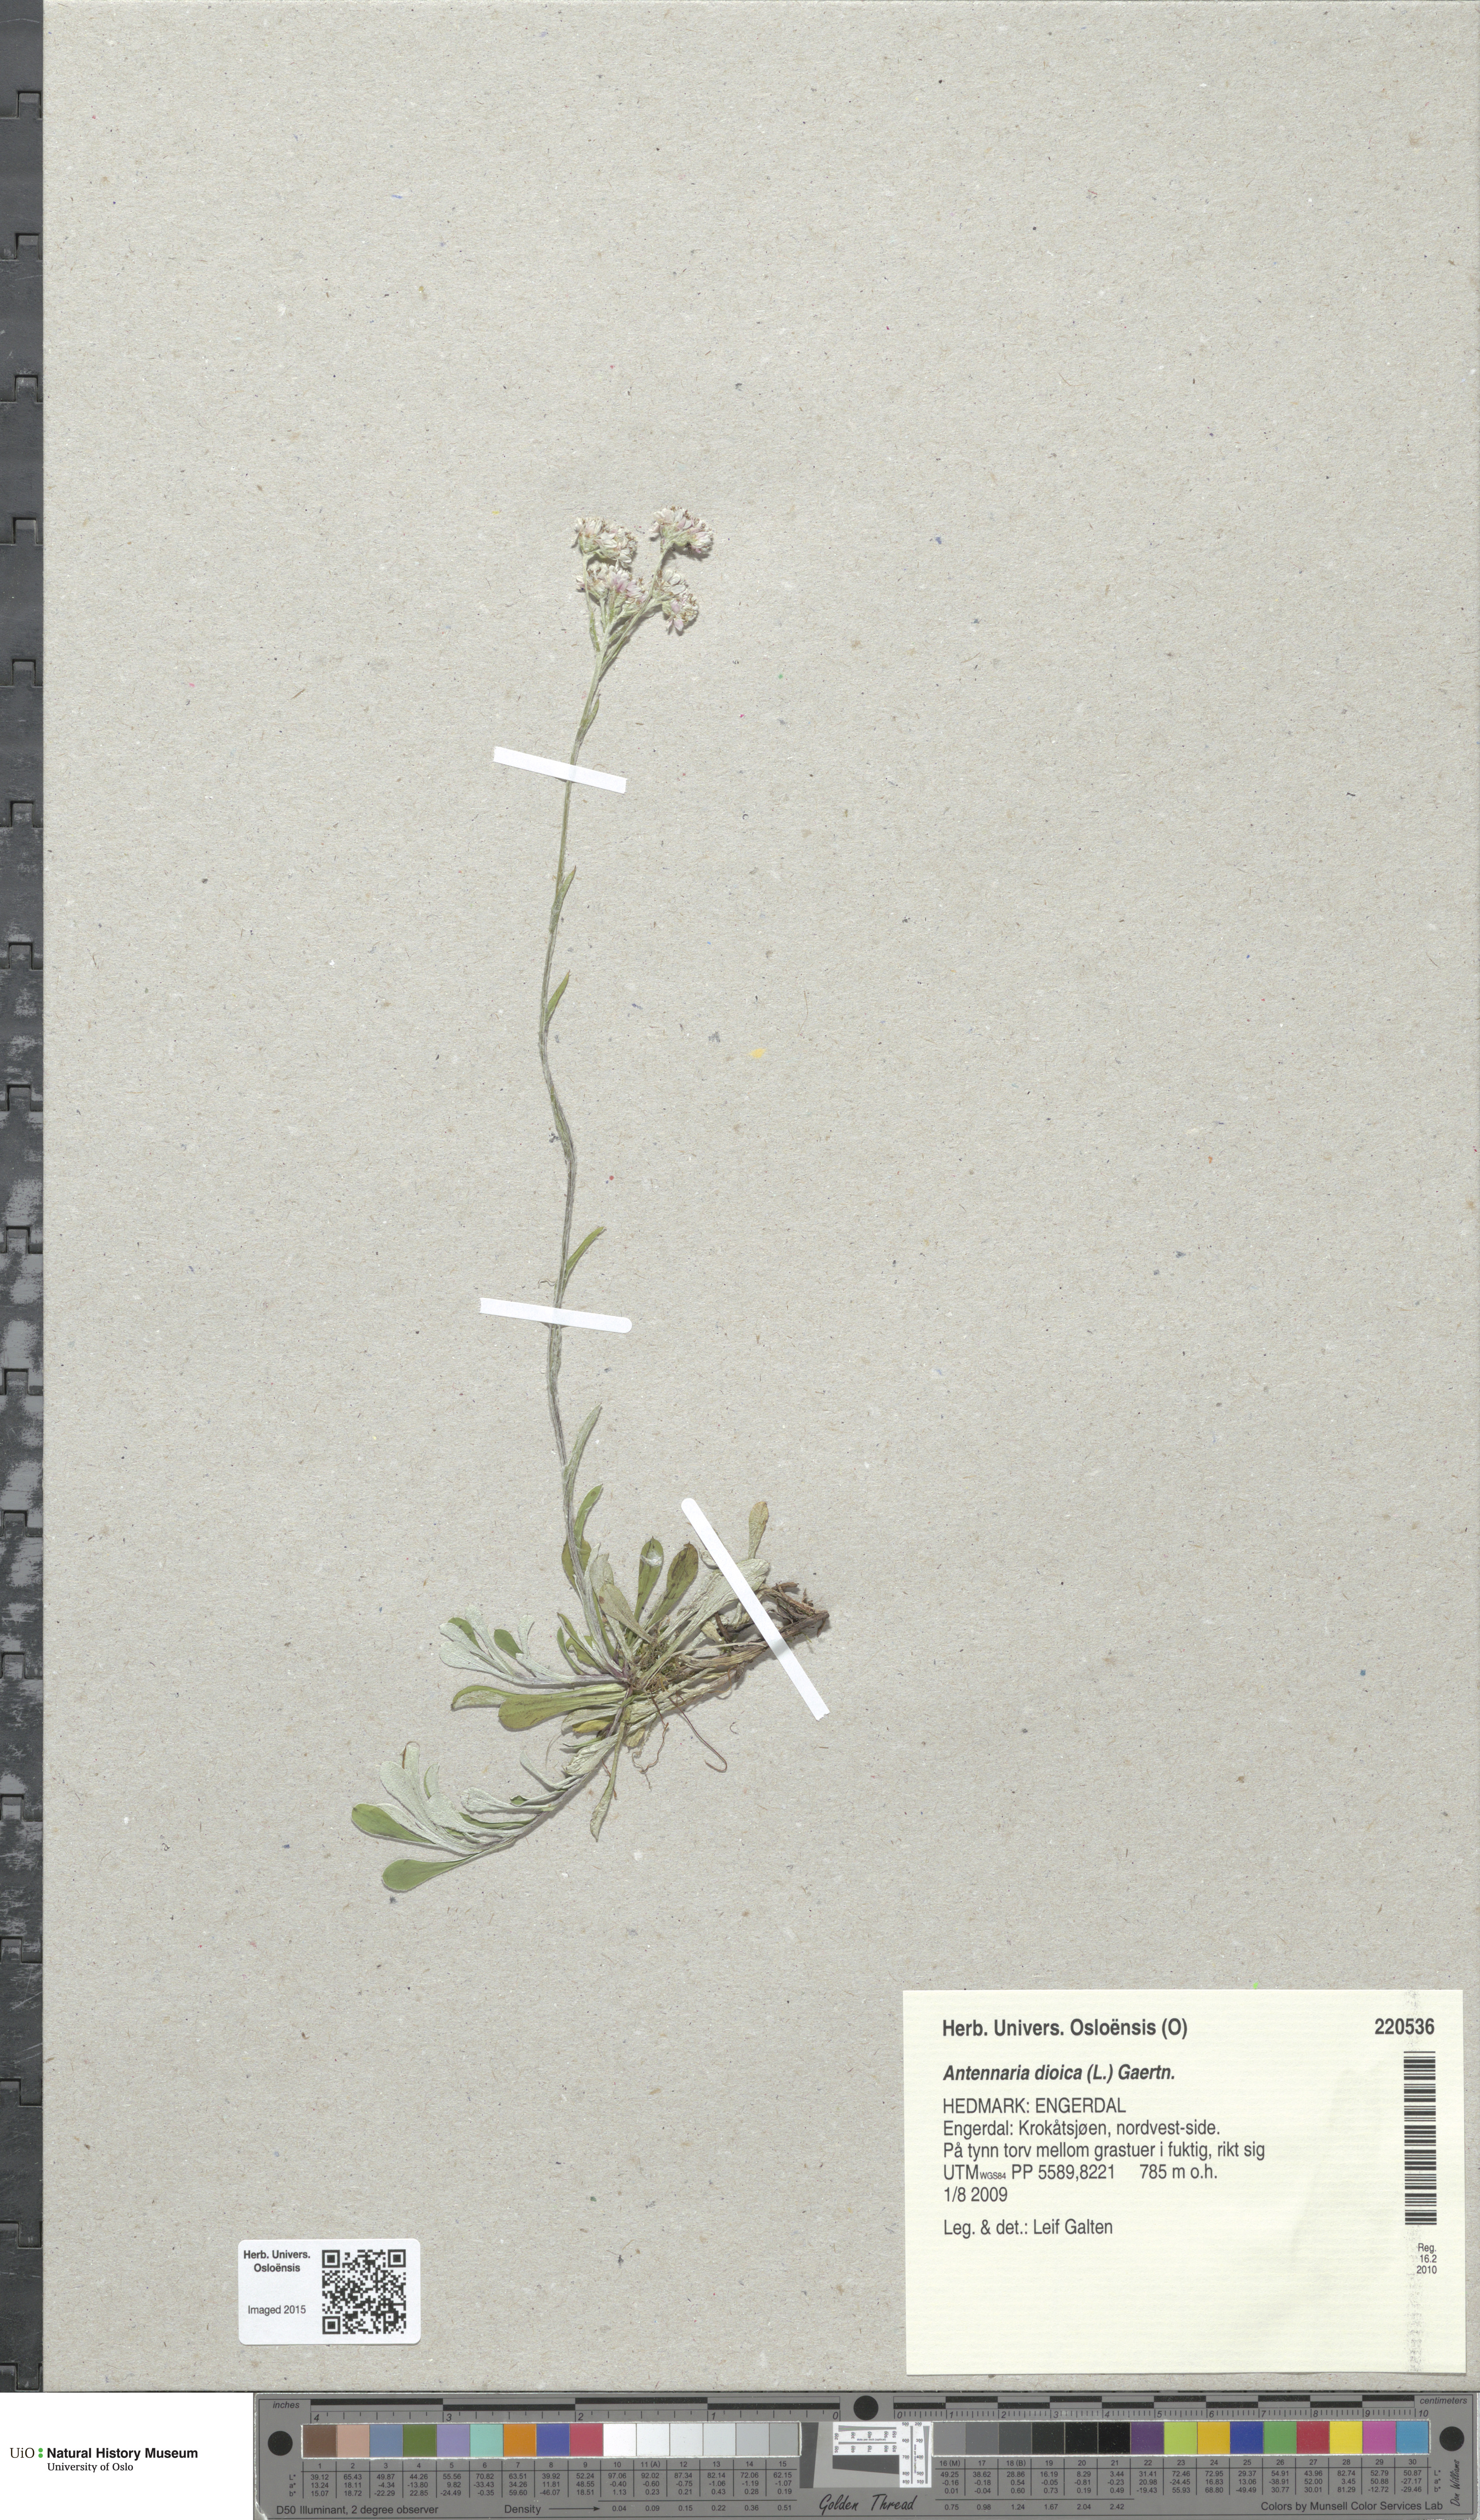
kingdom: Plantae
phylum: Tracheophyta
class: Magnoliopsida
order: Asterales
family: Asteraceae
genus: Antennaria
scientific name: Antennaria dioica
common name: Mountain everlasting
